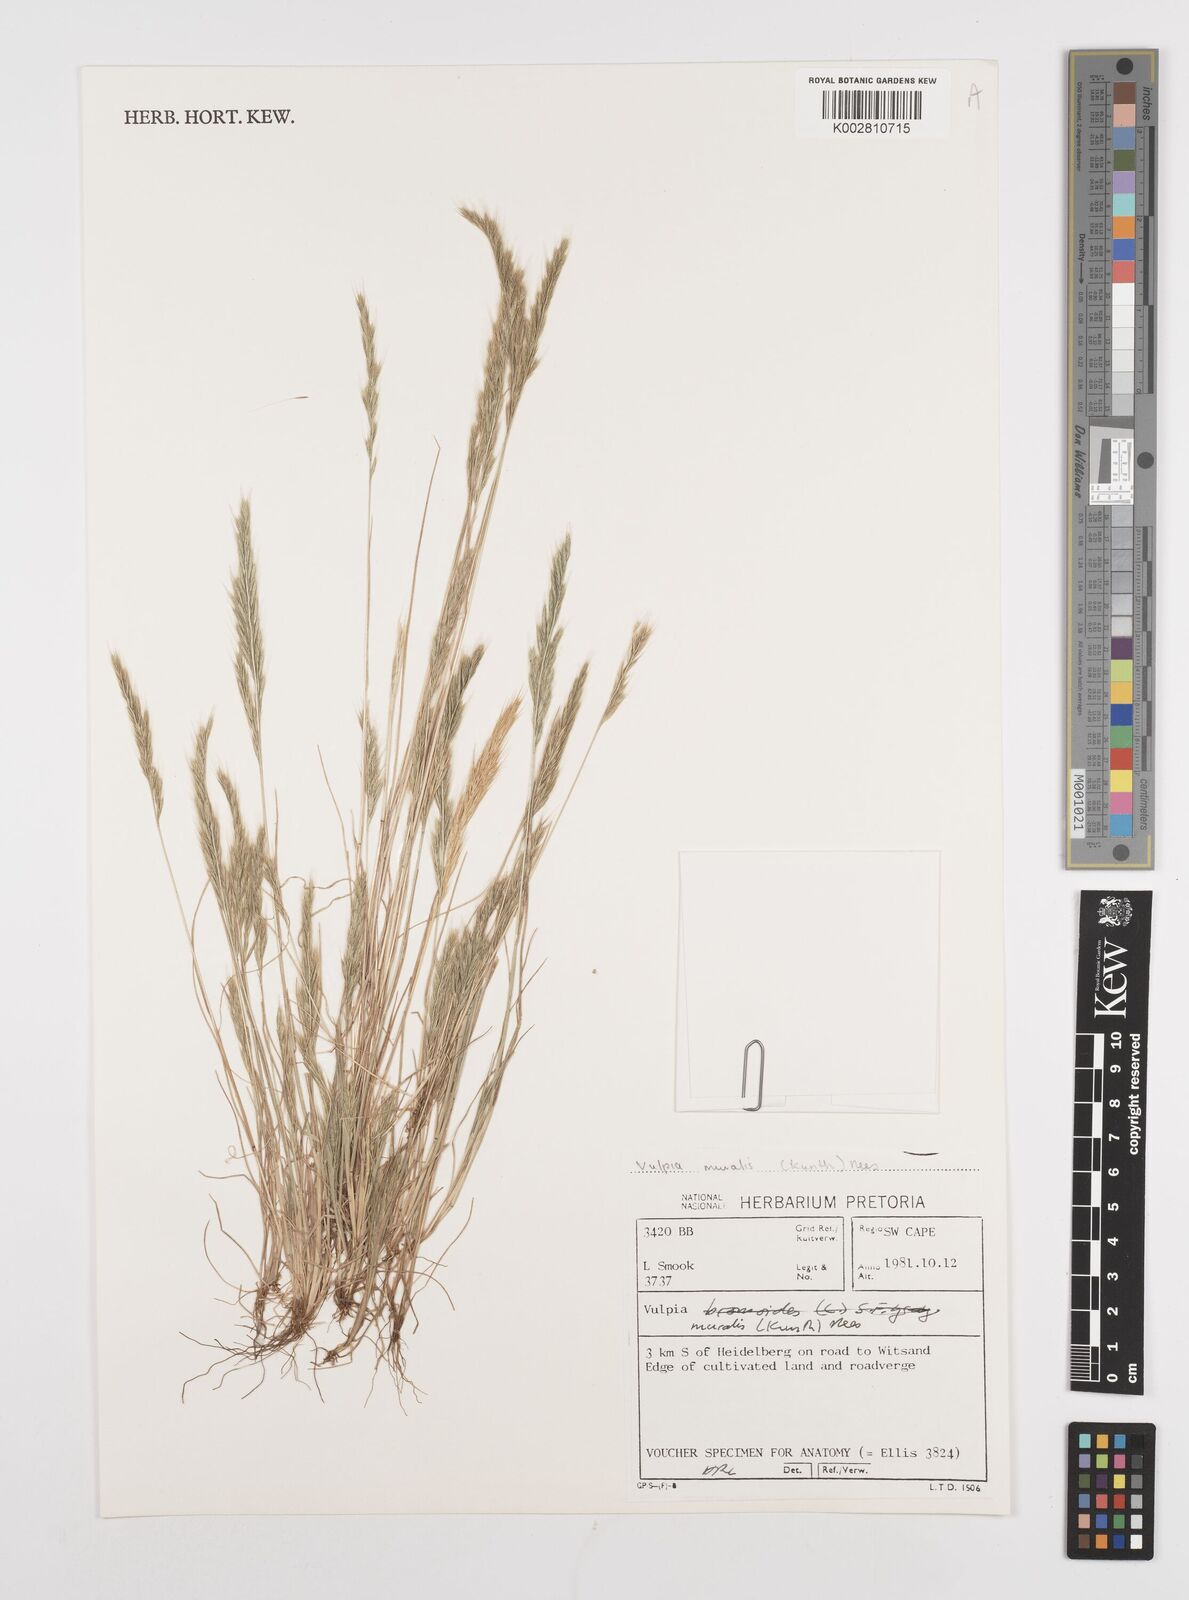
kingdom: Plantae
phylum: Tracheophyta
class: Liliopsida
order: Poales
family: Poaceae
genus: Festuca
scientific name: Festuca muralis
